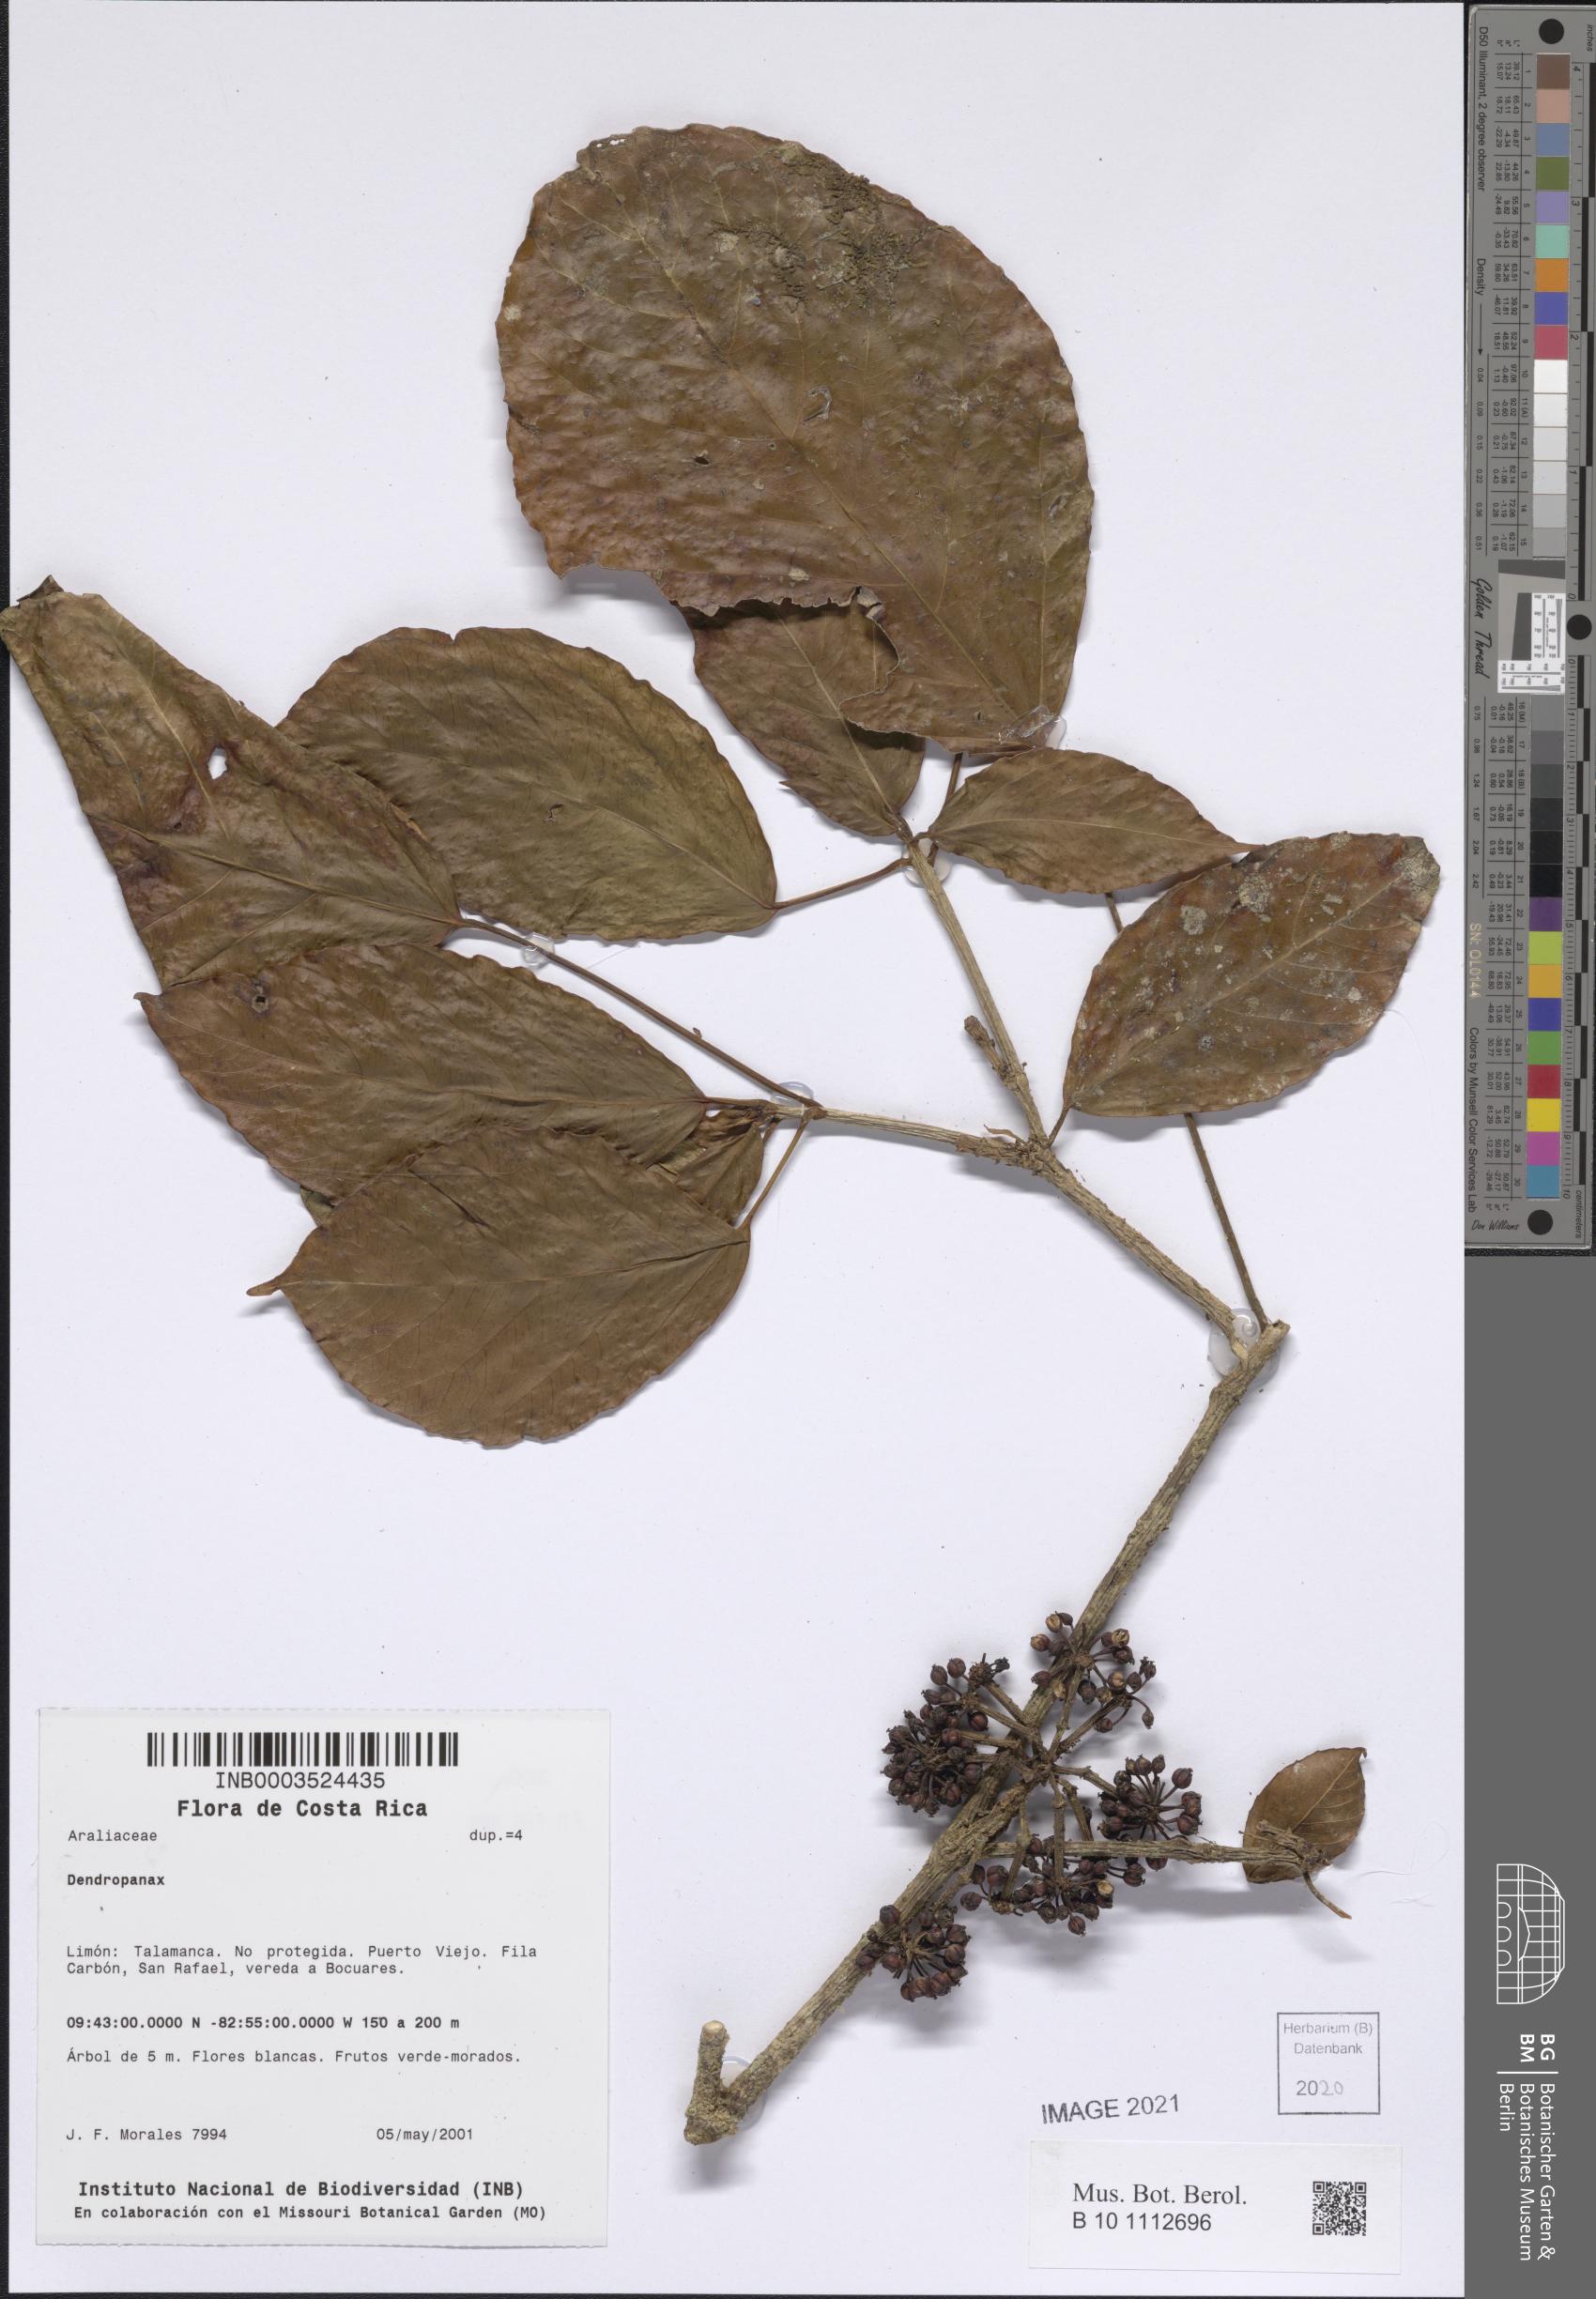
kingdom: Plantae
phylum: Tracheophyta
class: Magnoliopsida
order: Apiales
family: Araliaceae
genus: Dendropanax
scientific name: Dendropanax
